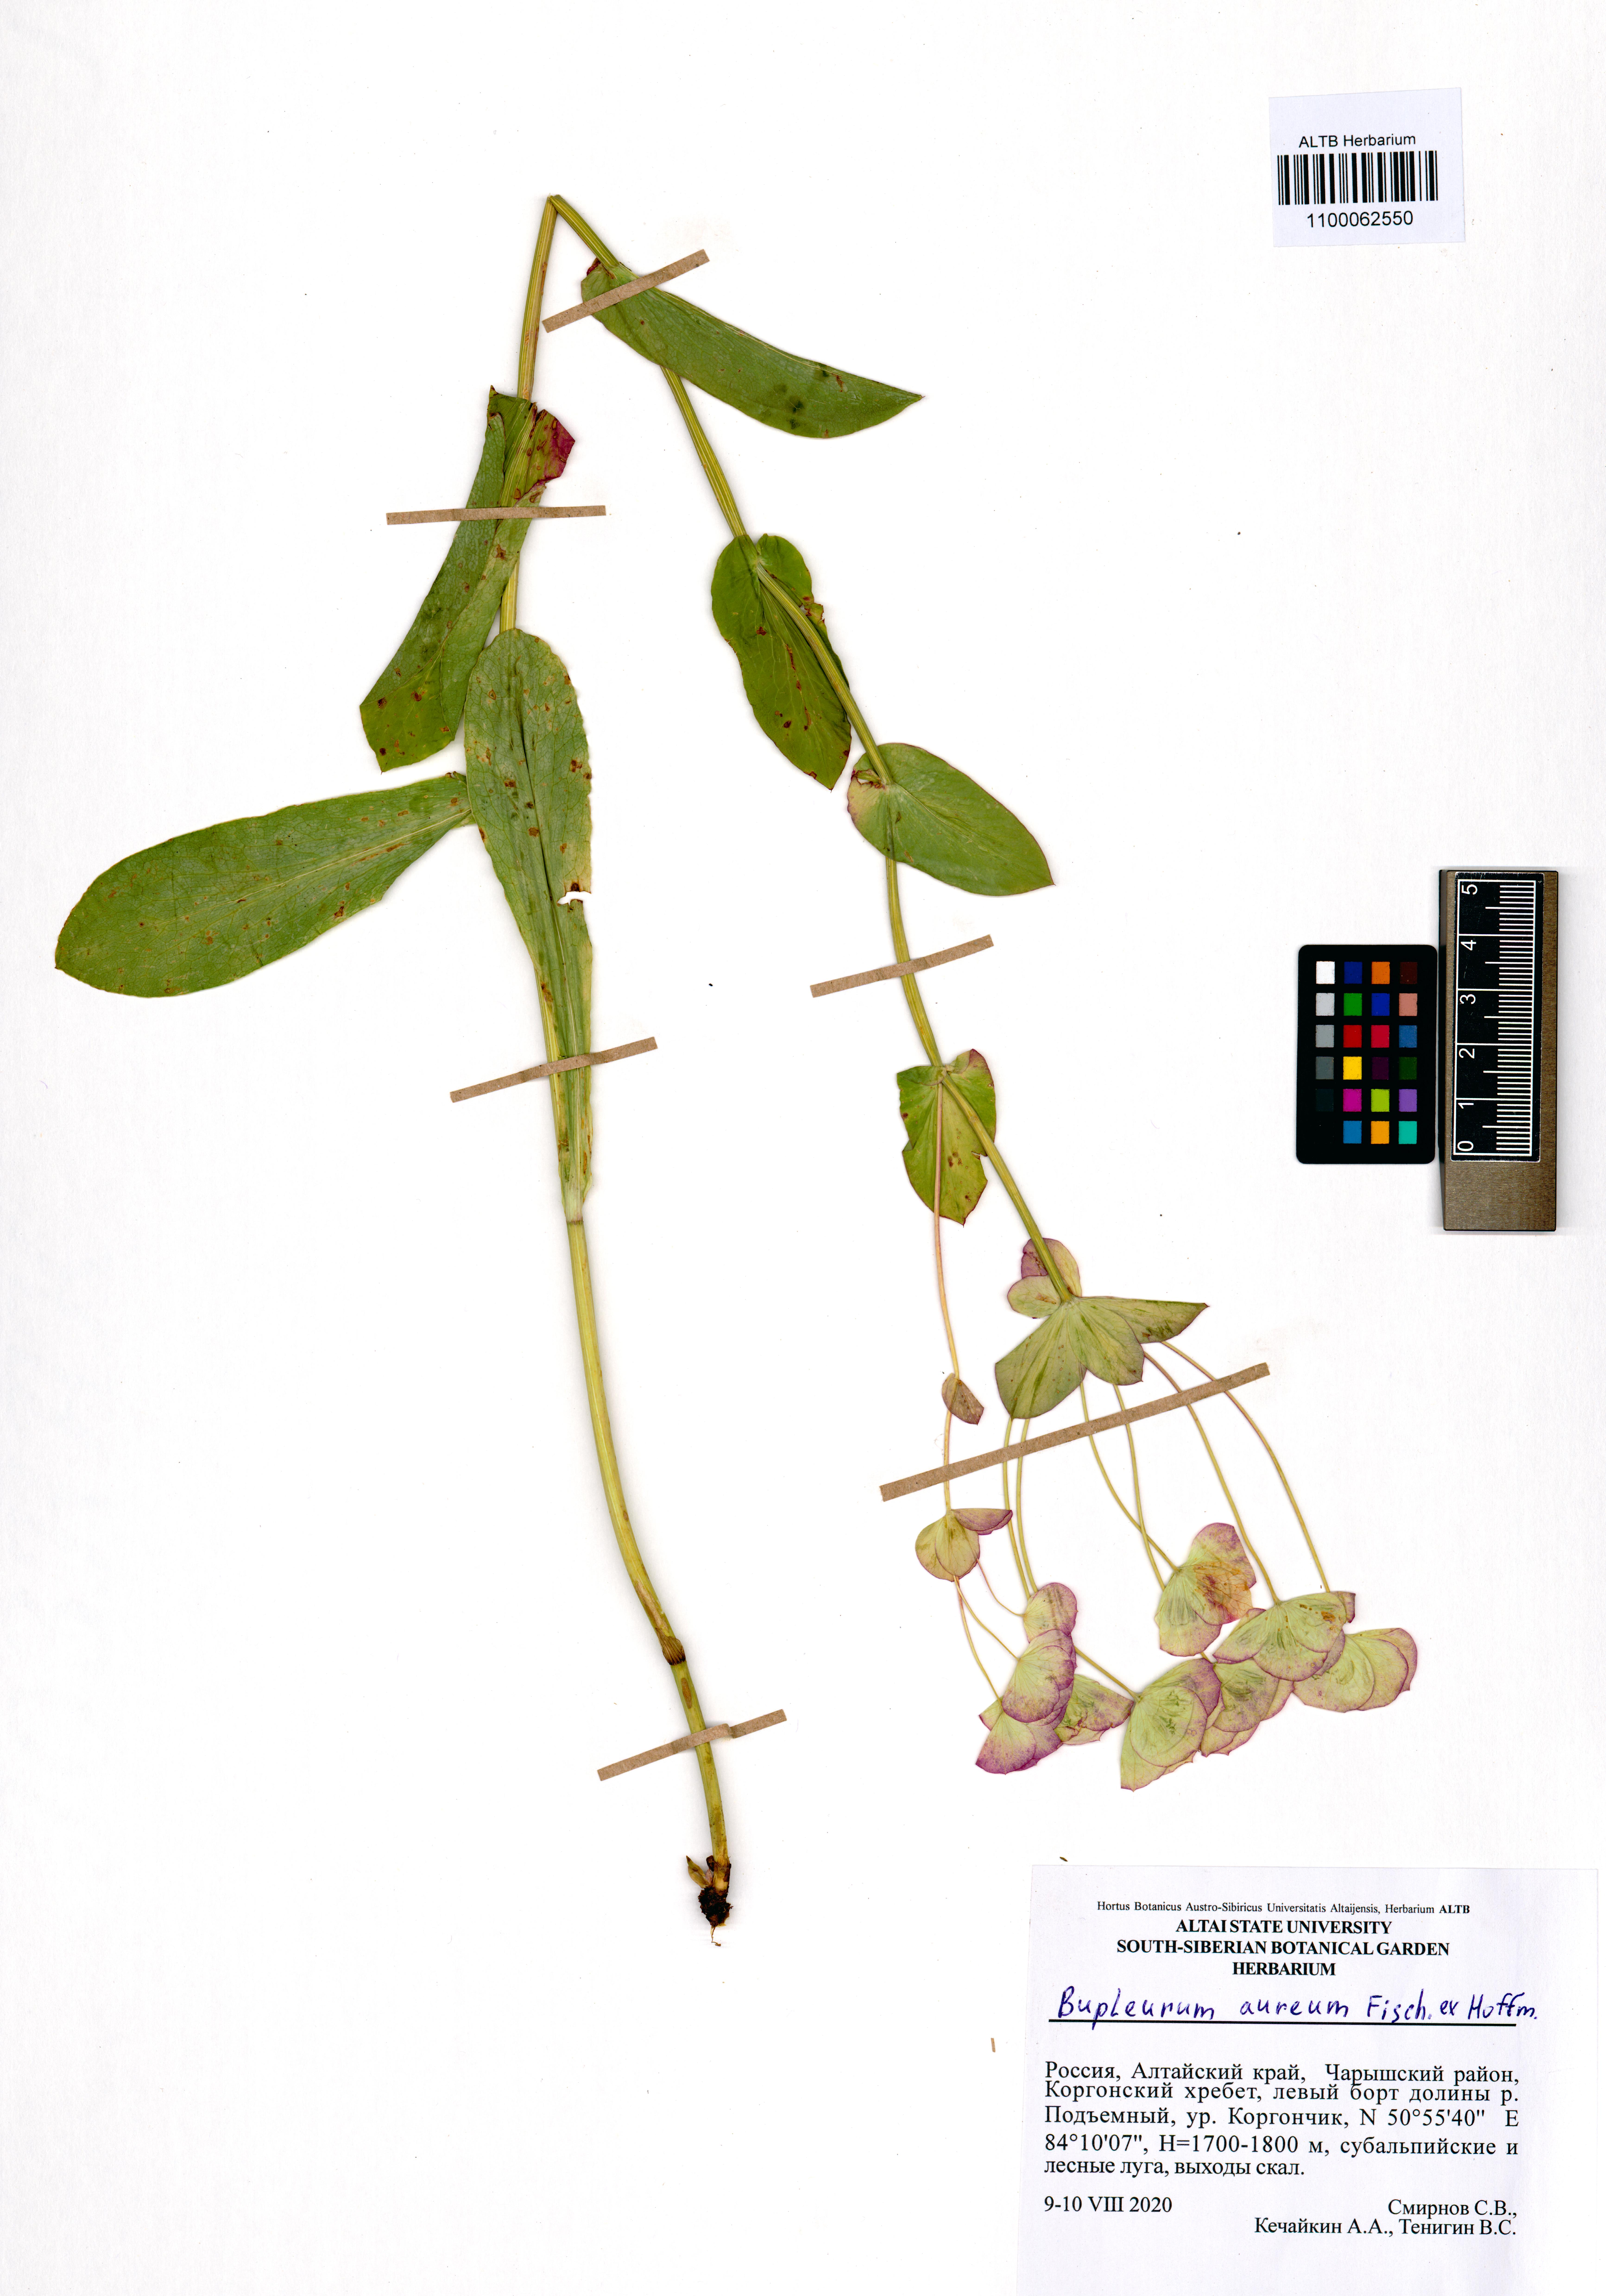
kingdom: Plantae
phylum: Tracheophyta
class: Magnoliopsida
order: Apiales
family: Apiaceae
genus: Bupleurum
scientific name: Bupleurum aureum
